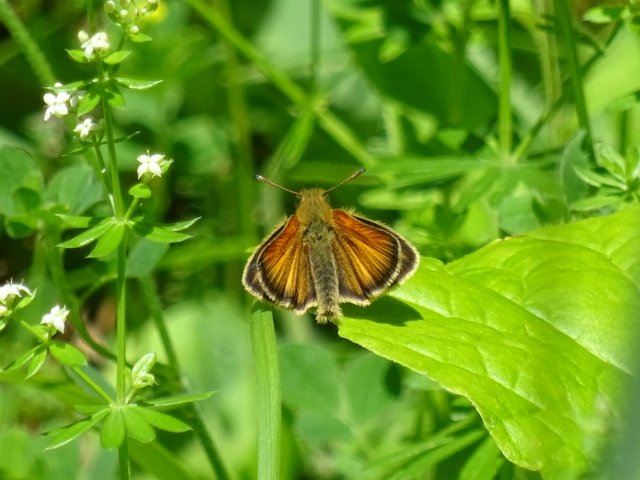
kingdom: Animalia
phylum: Arthropoda
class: Insecta
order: Lepidoptera
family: Hesperiidae
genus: Thymelicus
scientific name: Thymelicus lineola
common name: European Skipper
